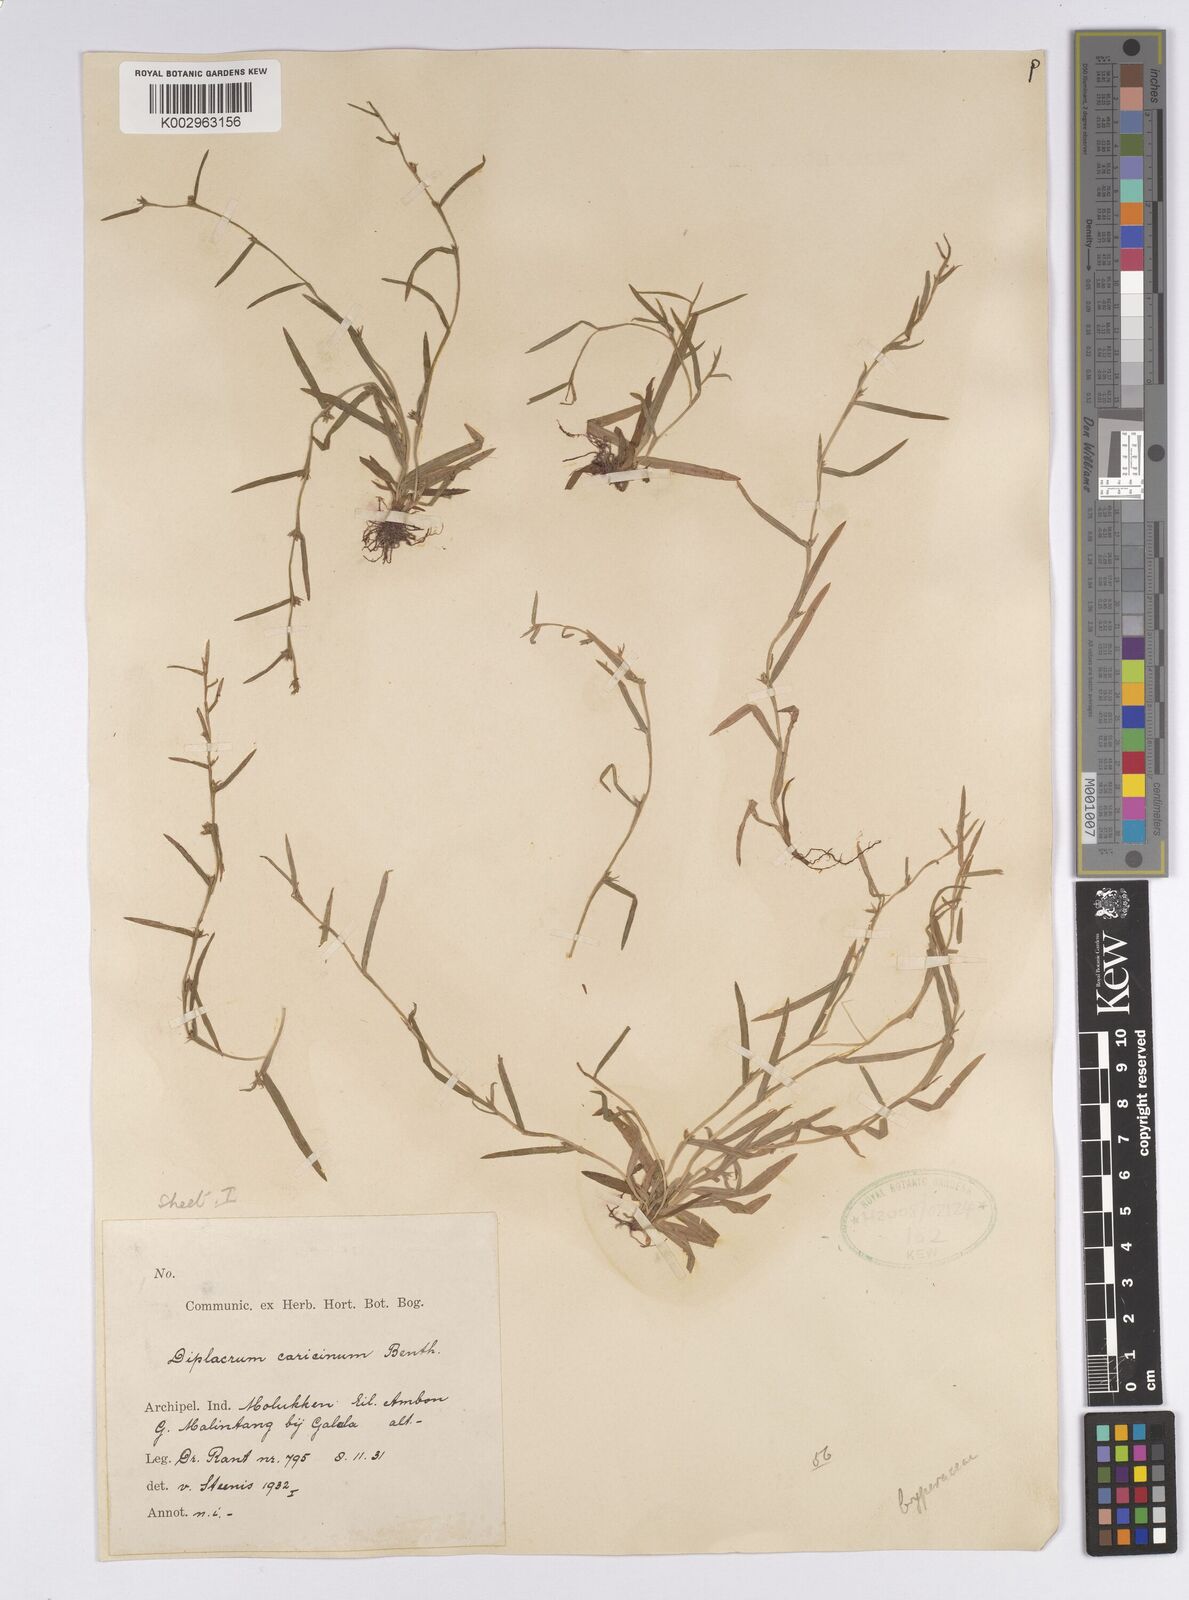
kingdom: Plantae
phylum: Tracheophyta
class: Liliopsida
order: Poales
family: Cyperaceae
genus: Diplacrum
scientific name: Diplacrum caricinum
